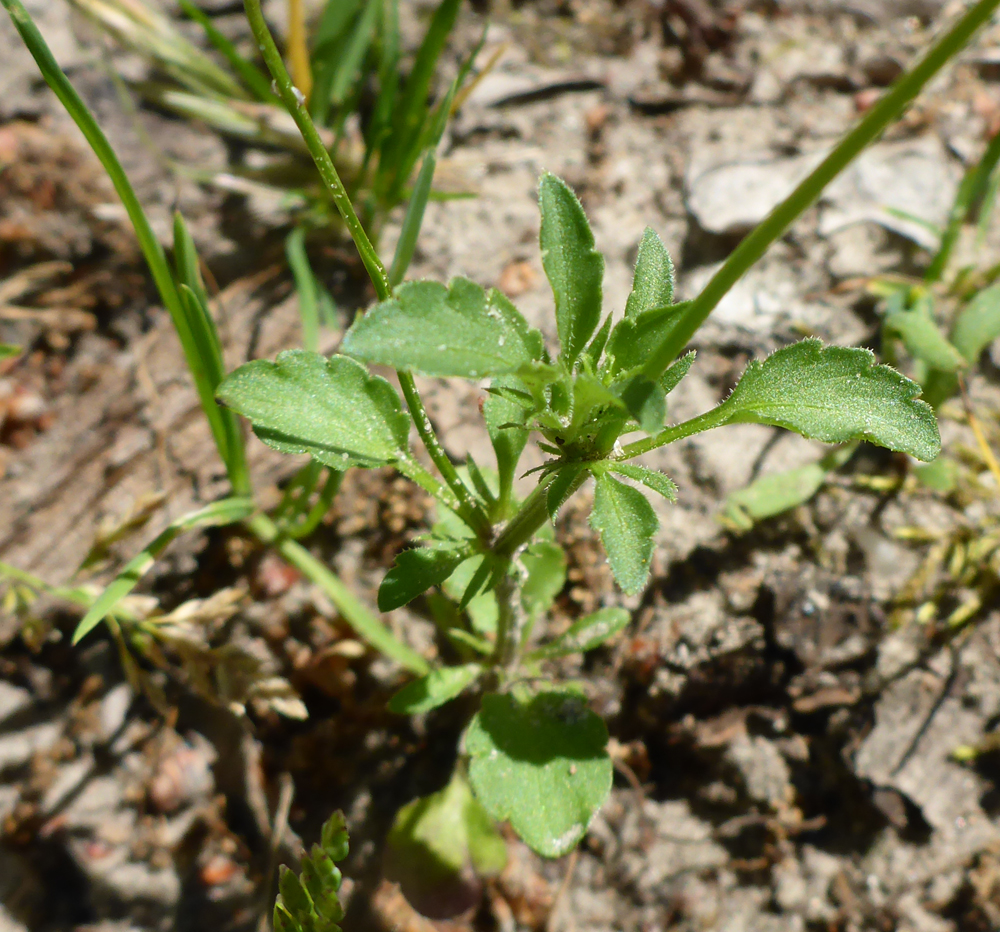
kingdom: Plantae
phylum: Tracheophyta
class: Magnoliopsida
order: Malpighiales
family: Violaceae
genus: Viola
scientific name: Viola arvensis
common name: Field pansy
